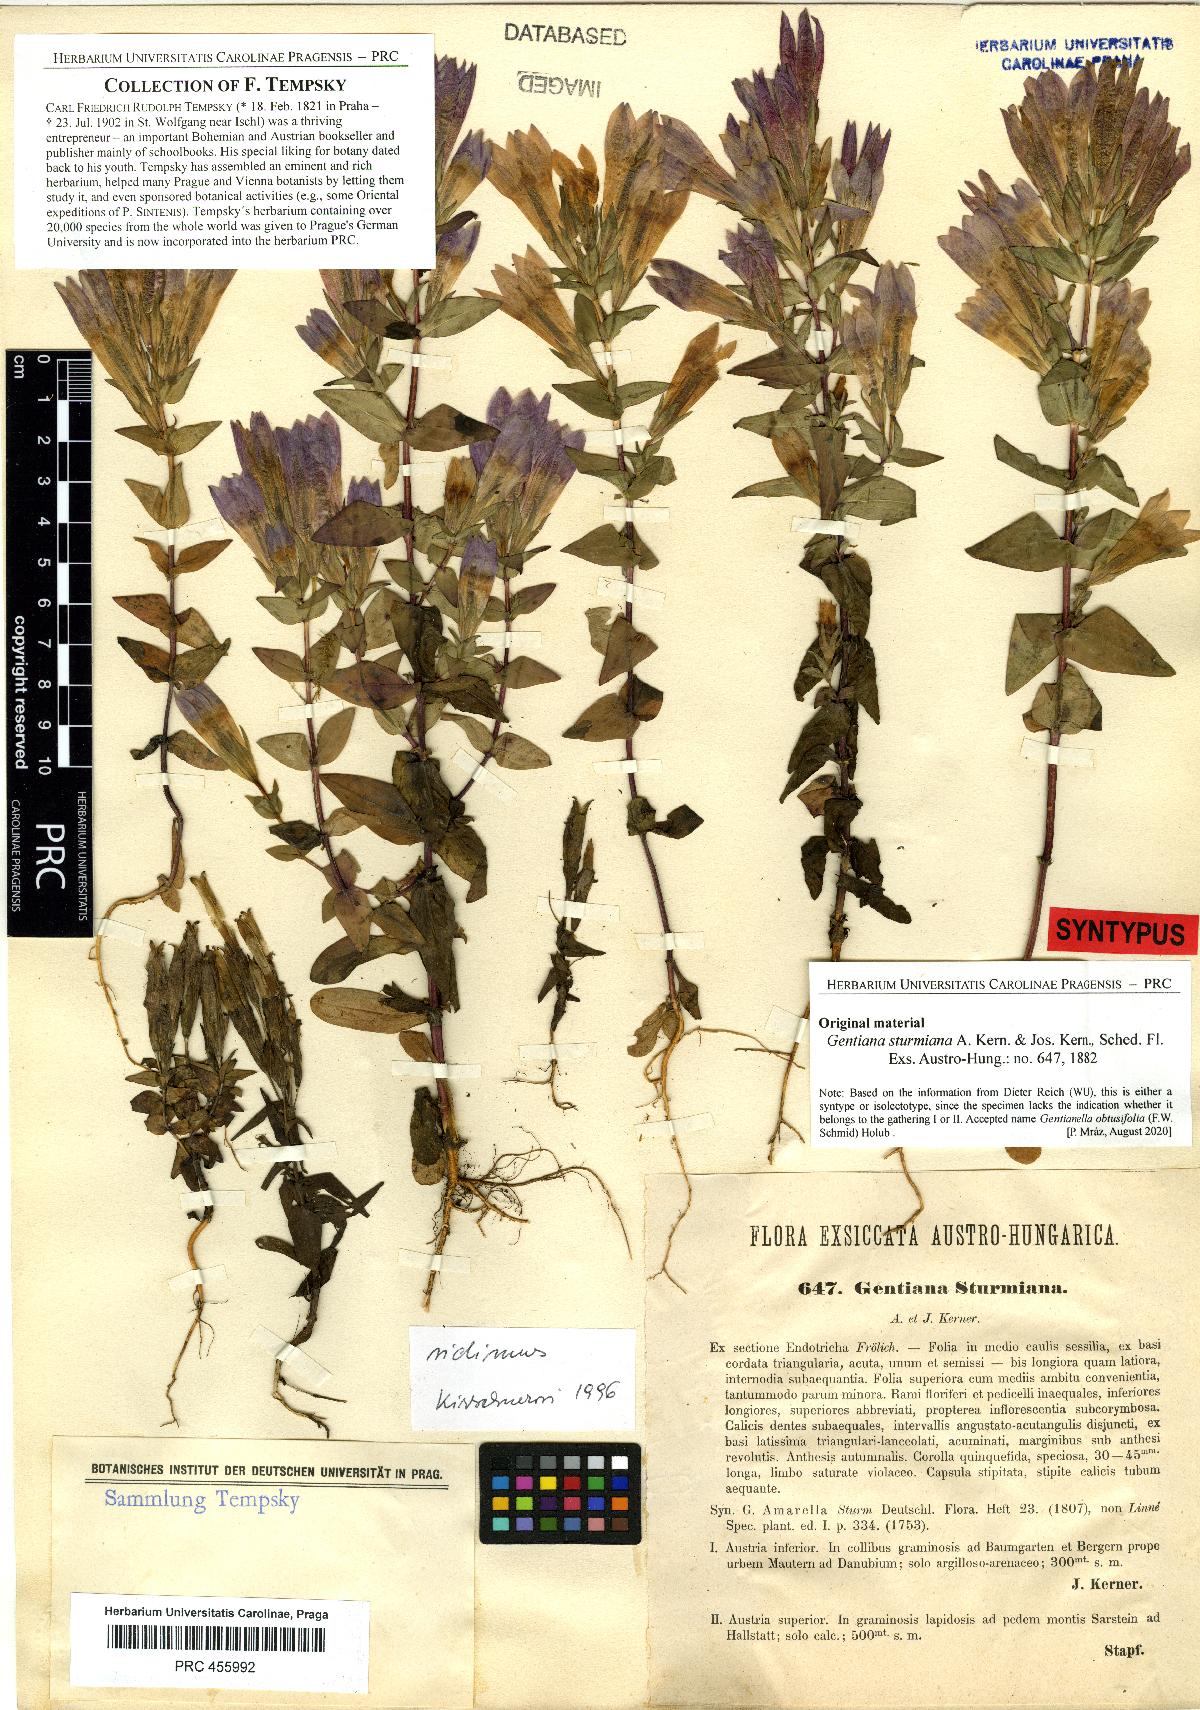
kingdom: Plantae
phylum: Tracheophyta
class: Magnoliopsida
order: Gentianales
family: Gentianaceae
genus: Gentianella
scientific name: Gentianella obtusifolia
